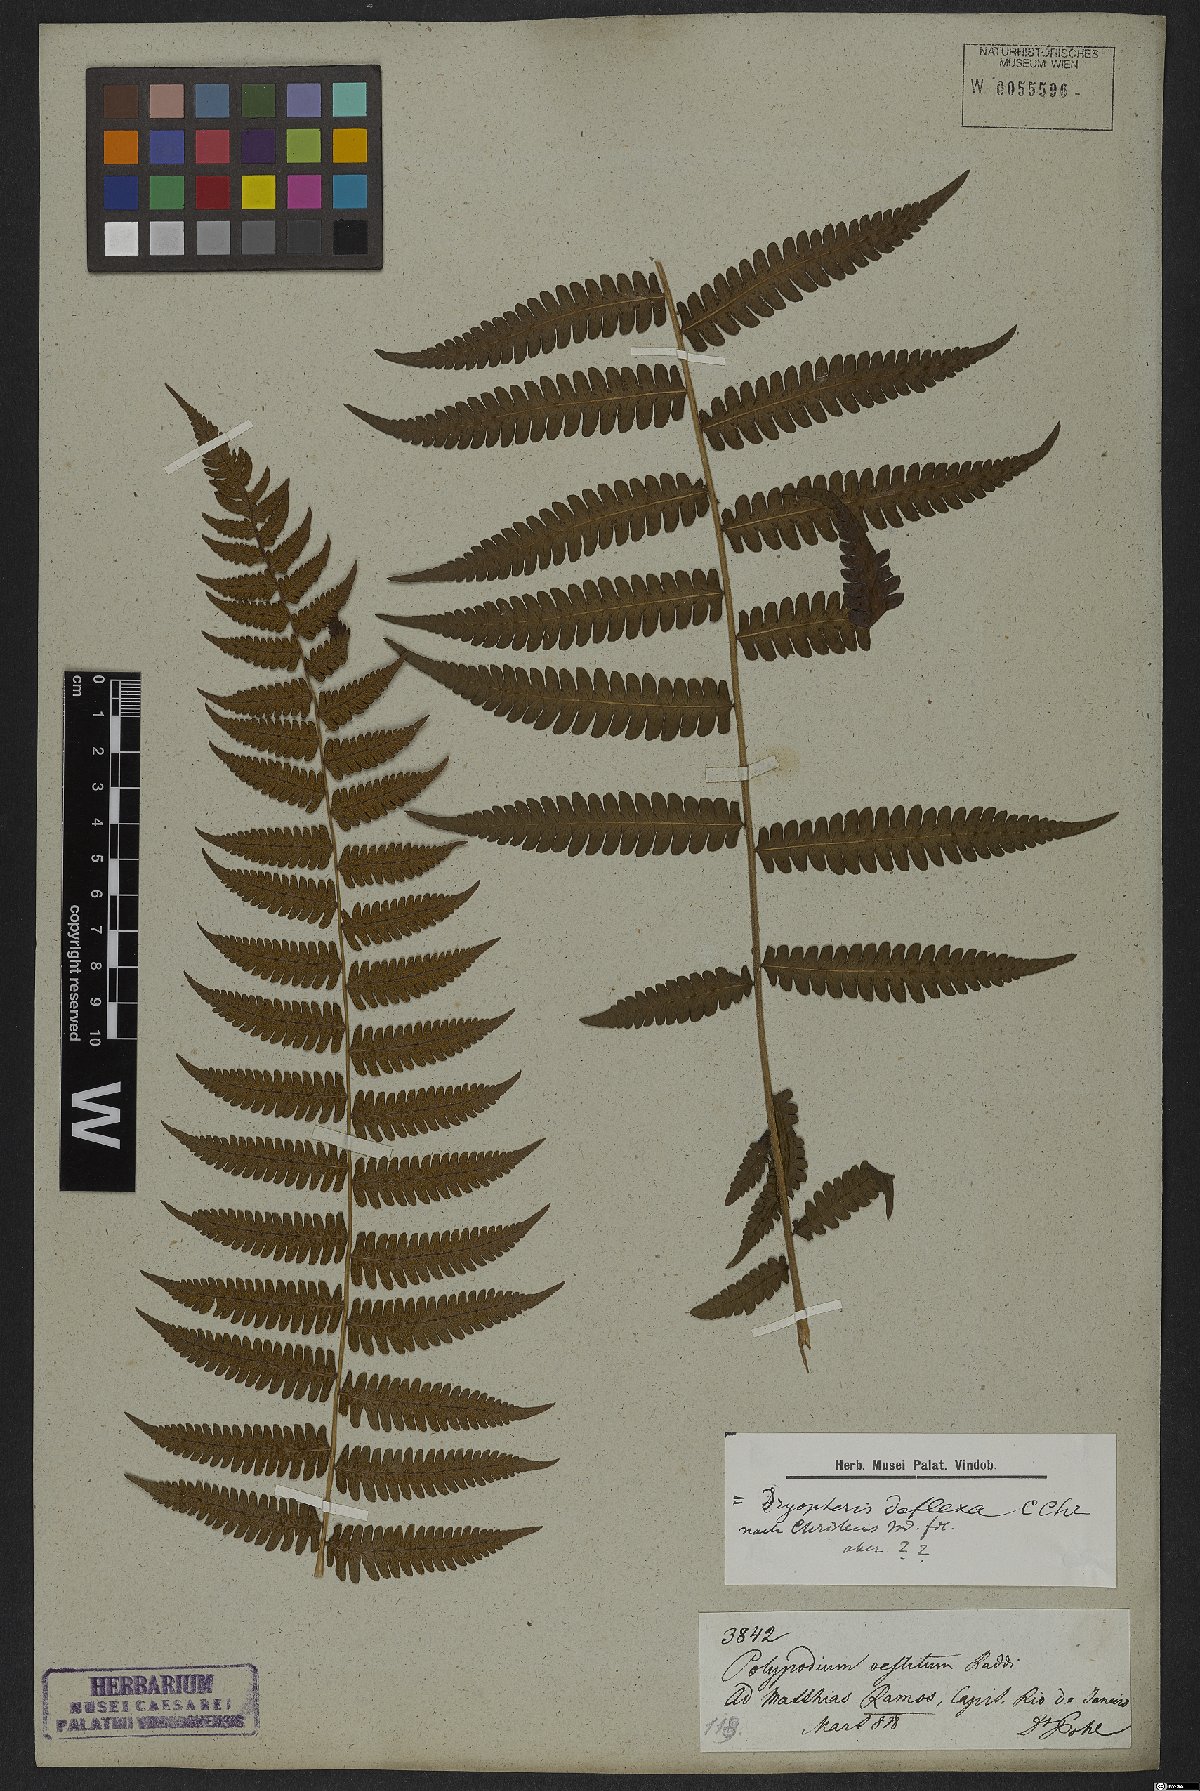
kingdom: Plantae
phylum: Tracheophyta
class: Polypodiopsida
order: Polypodiales
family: Thelypteridaceae
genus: Glaphyropteridopsis
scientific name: Glaphyropteridopsis erubescens
